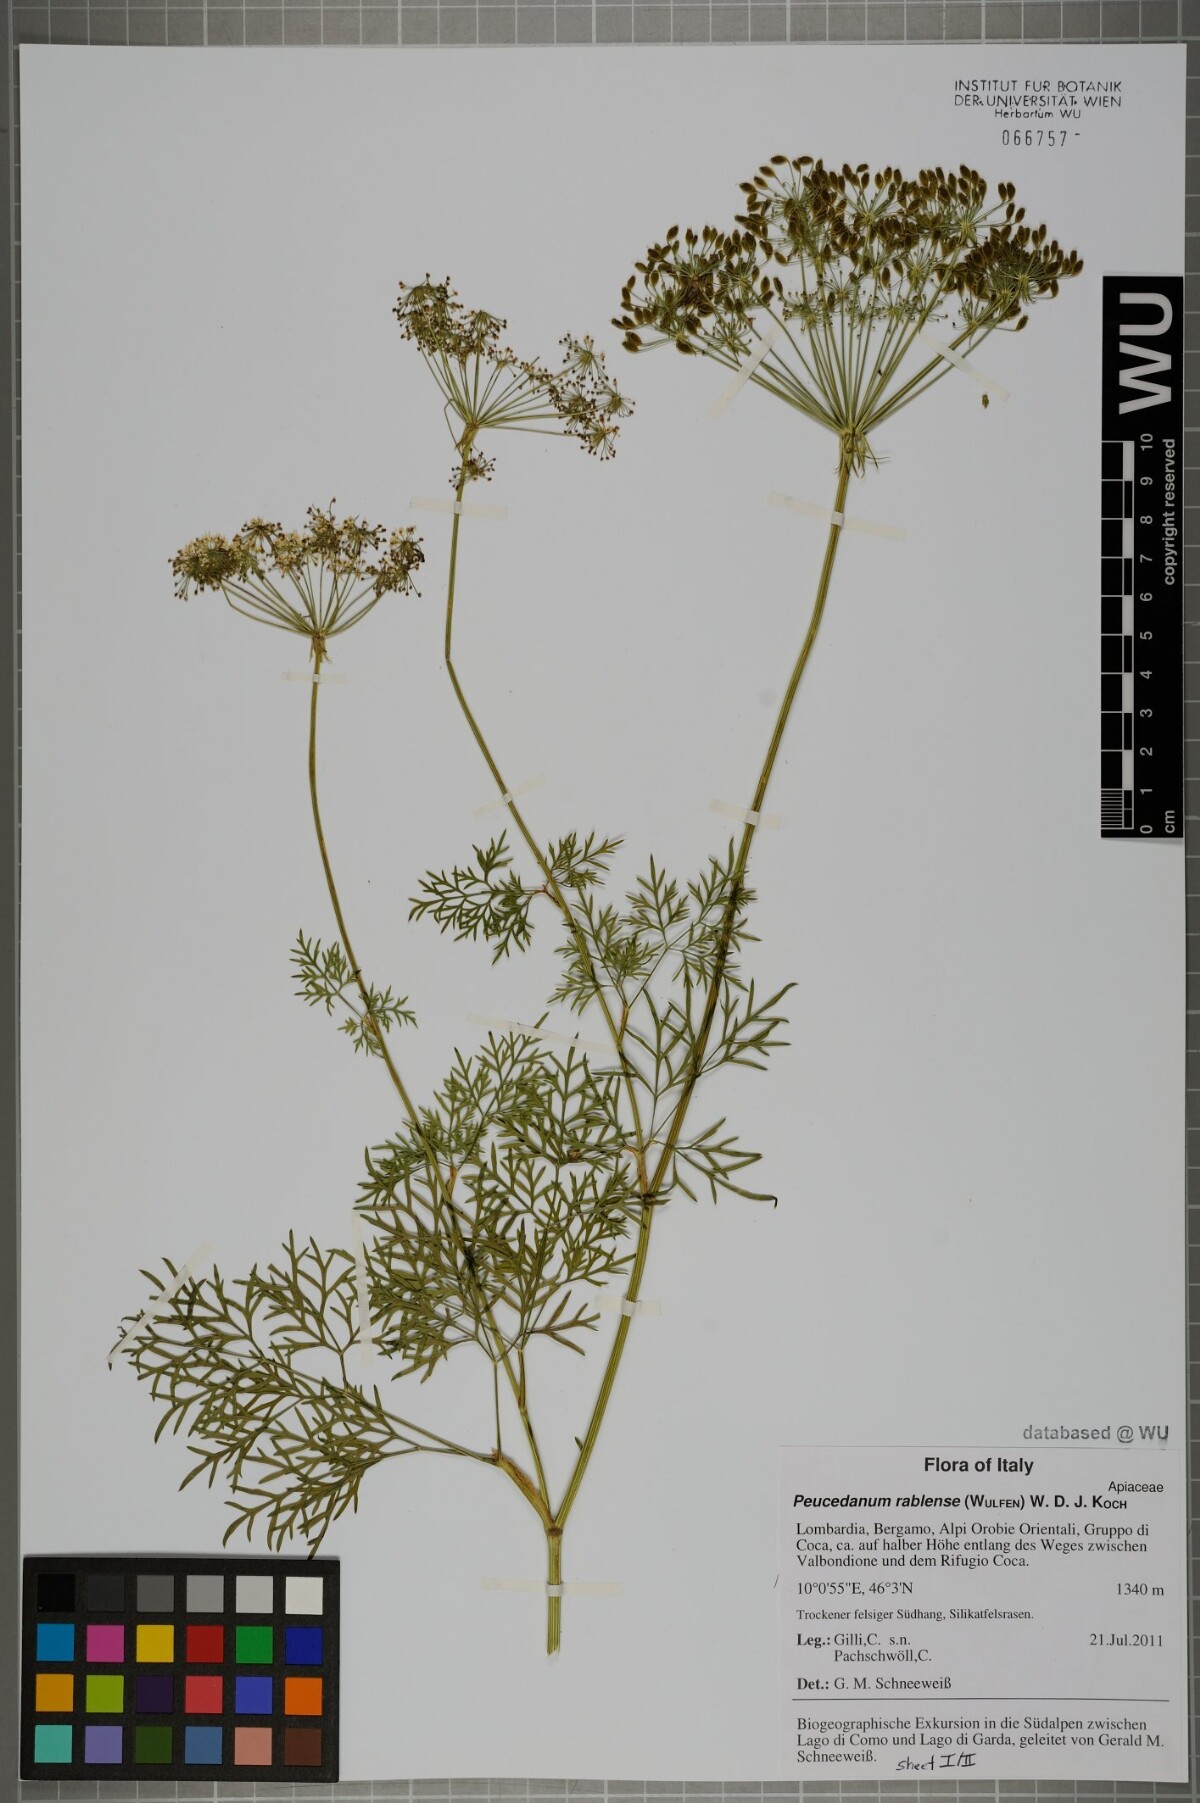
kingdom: Plantae
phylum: Tracheophyta
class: Magnoliopsida
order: Apiales
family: Apiaceae
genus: Peucedanum
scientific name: Peucedanum rablense
